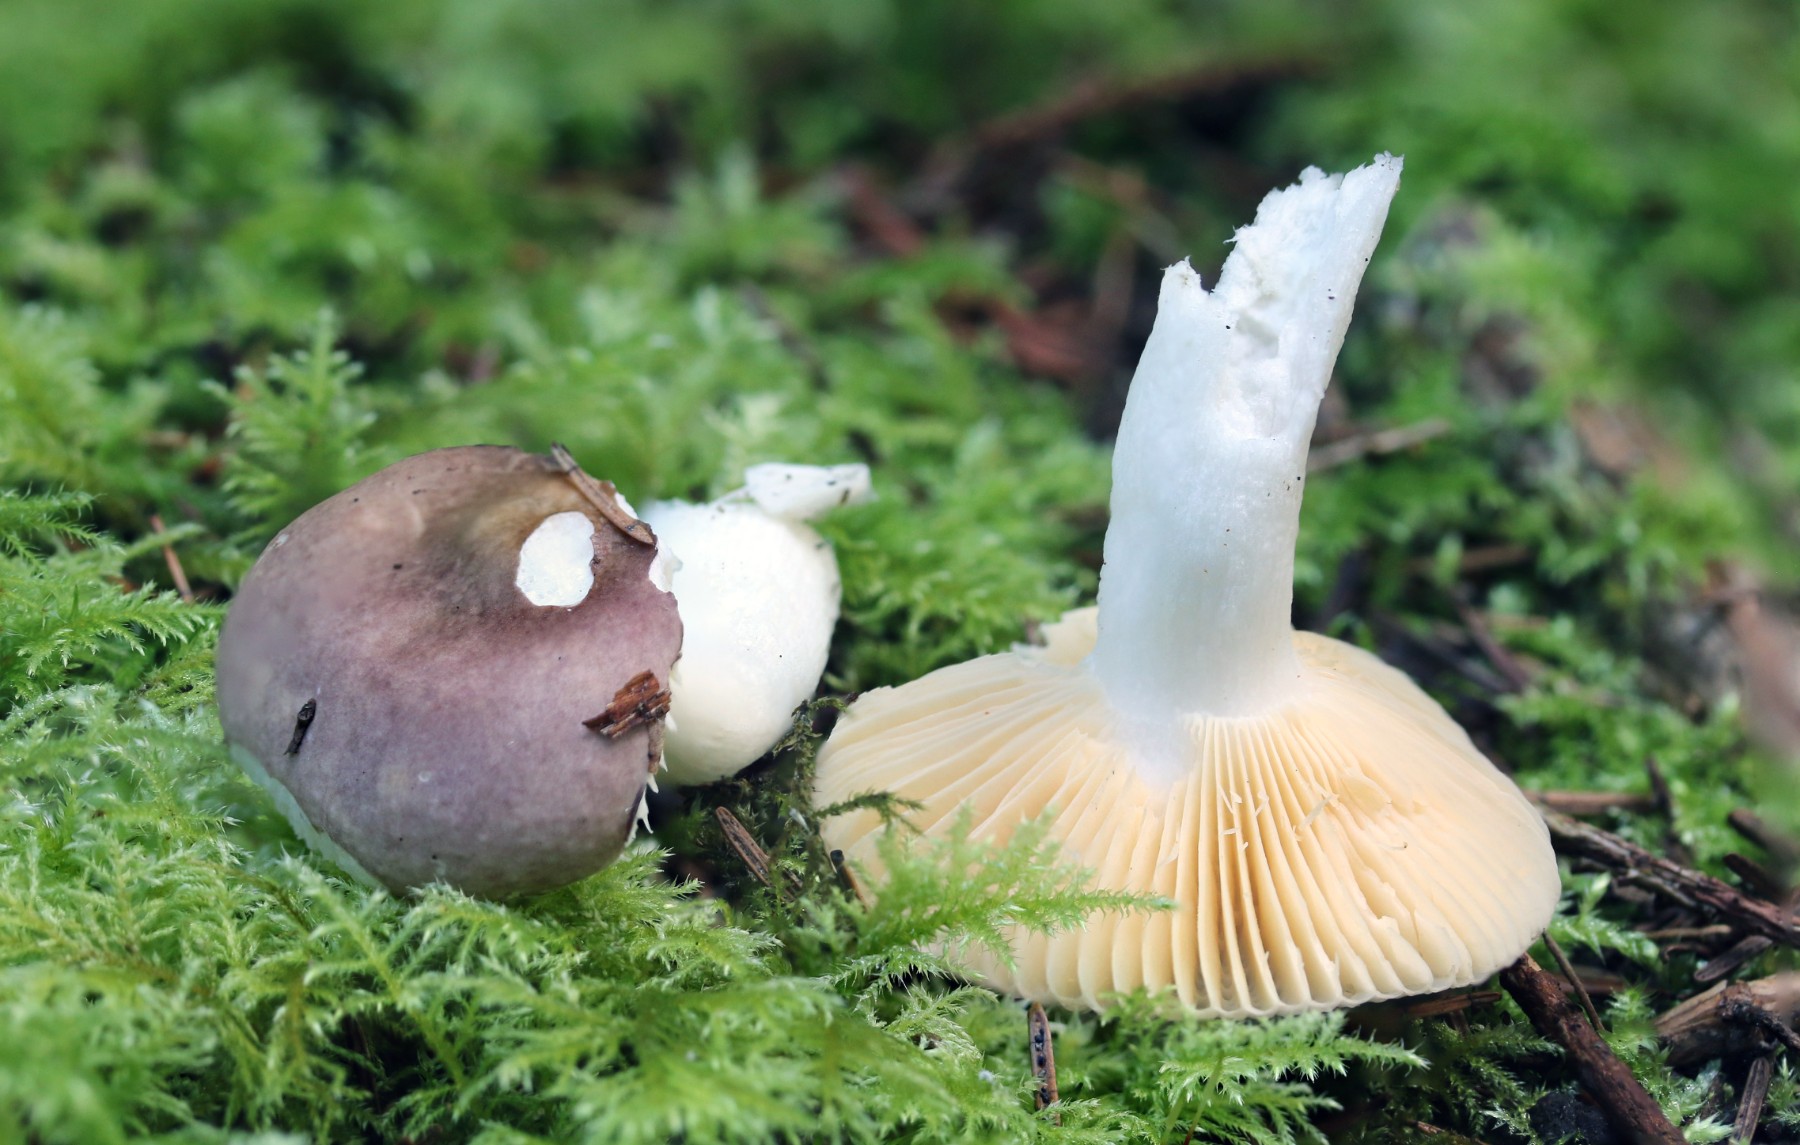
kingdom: Fungi
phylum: Basidiomycota
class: Agaricomycetes
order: Russulales
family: Russulaceae
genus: Russula
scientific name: Russula nauseosa
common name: spinkel skørhat
